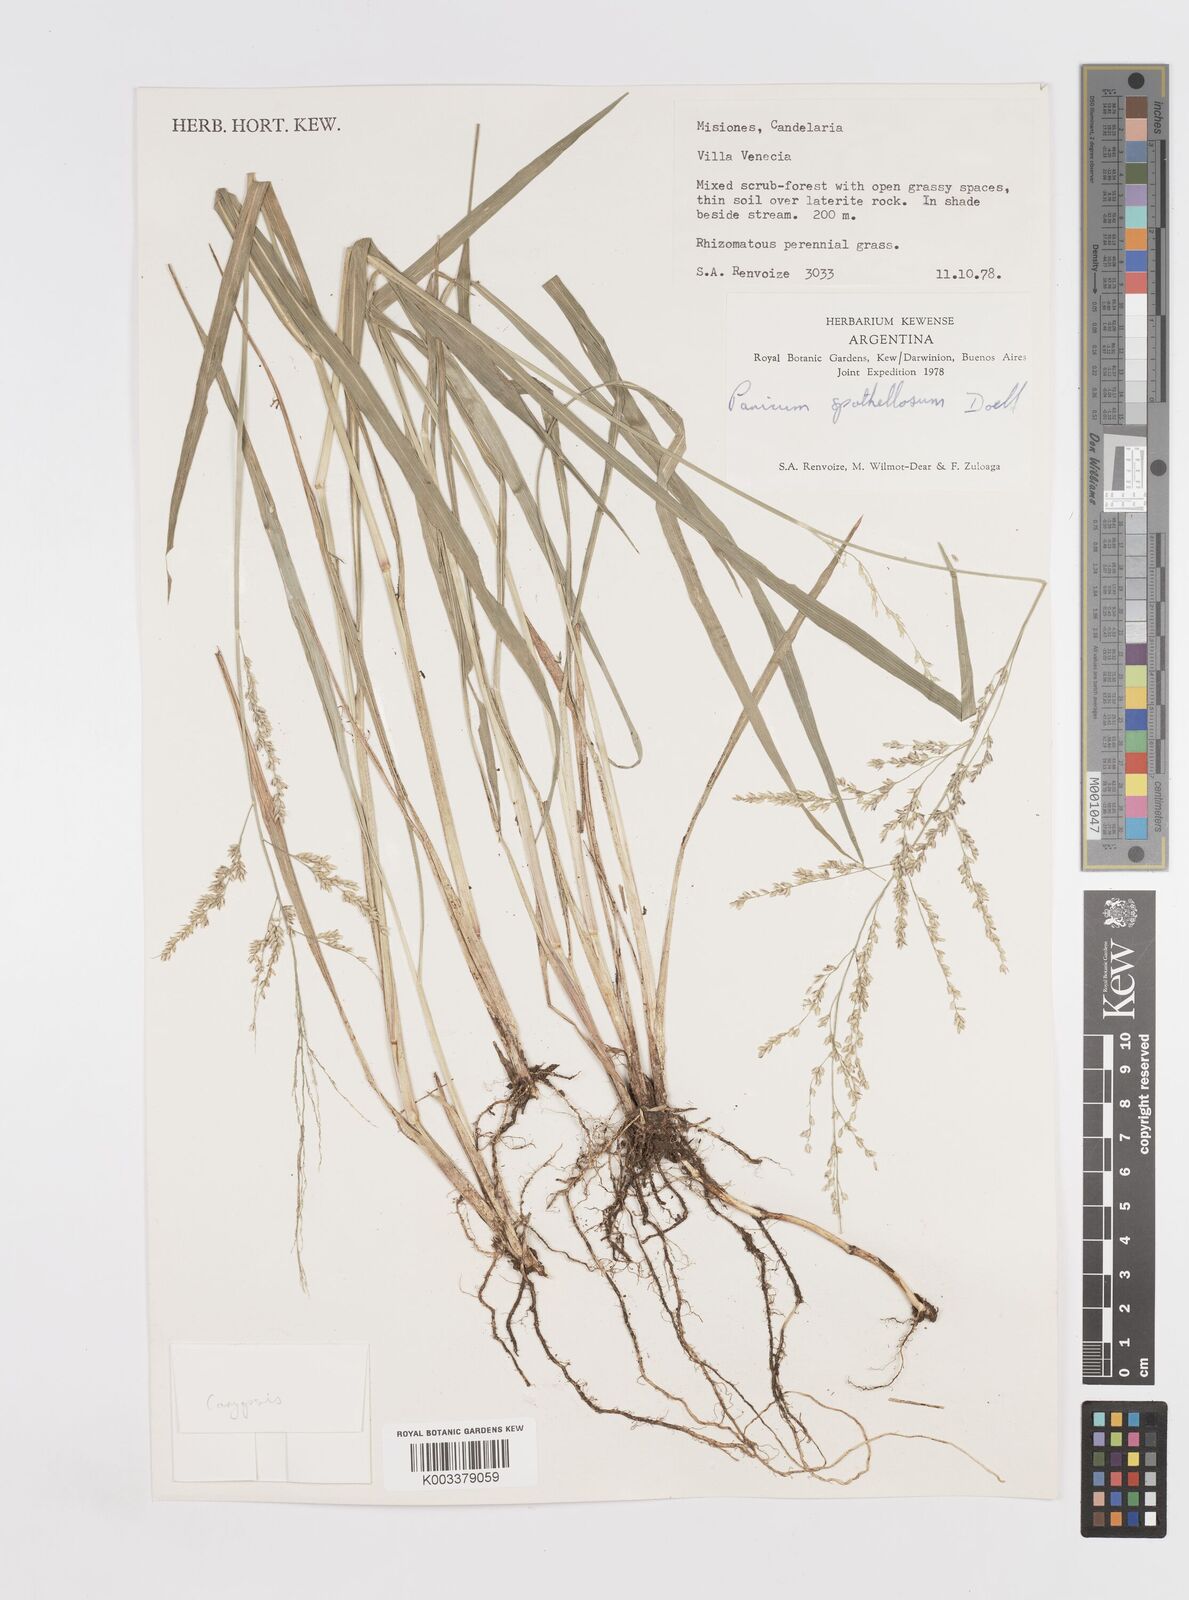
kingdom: Plantae
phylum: Tracheophyta
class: Liliopsida
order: Poales
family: Poaceae
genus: Steinchisma
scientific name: Steinchisma spathellosum
